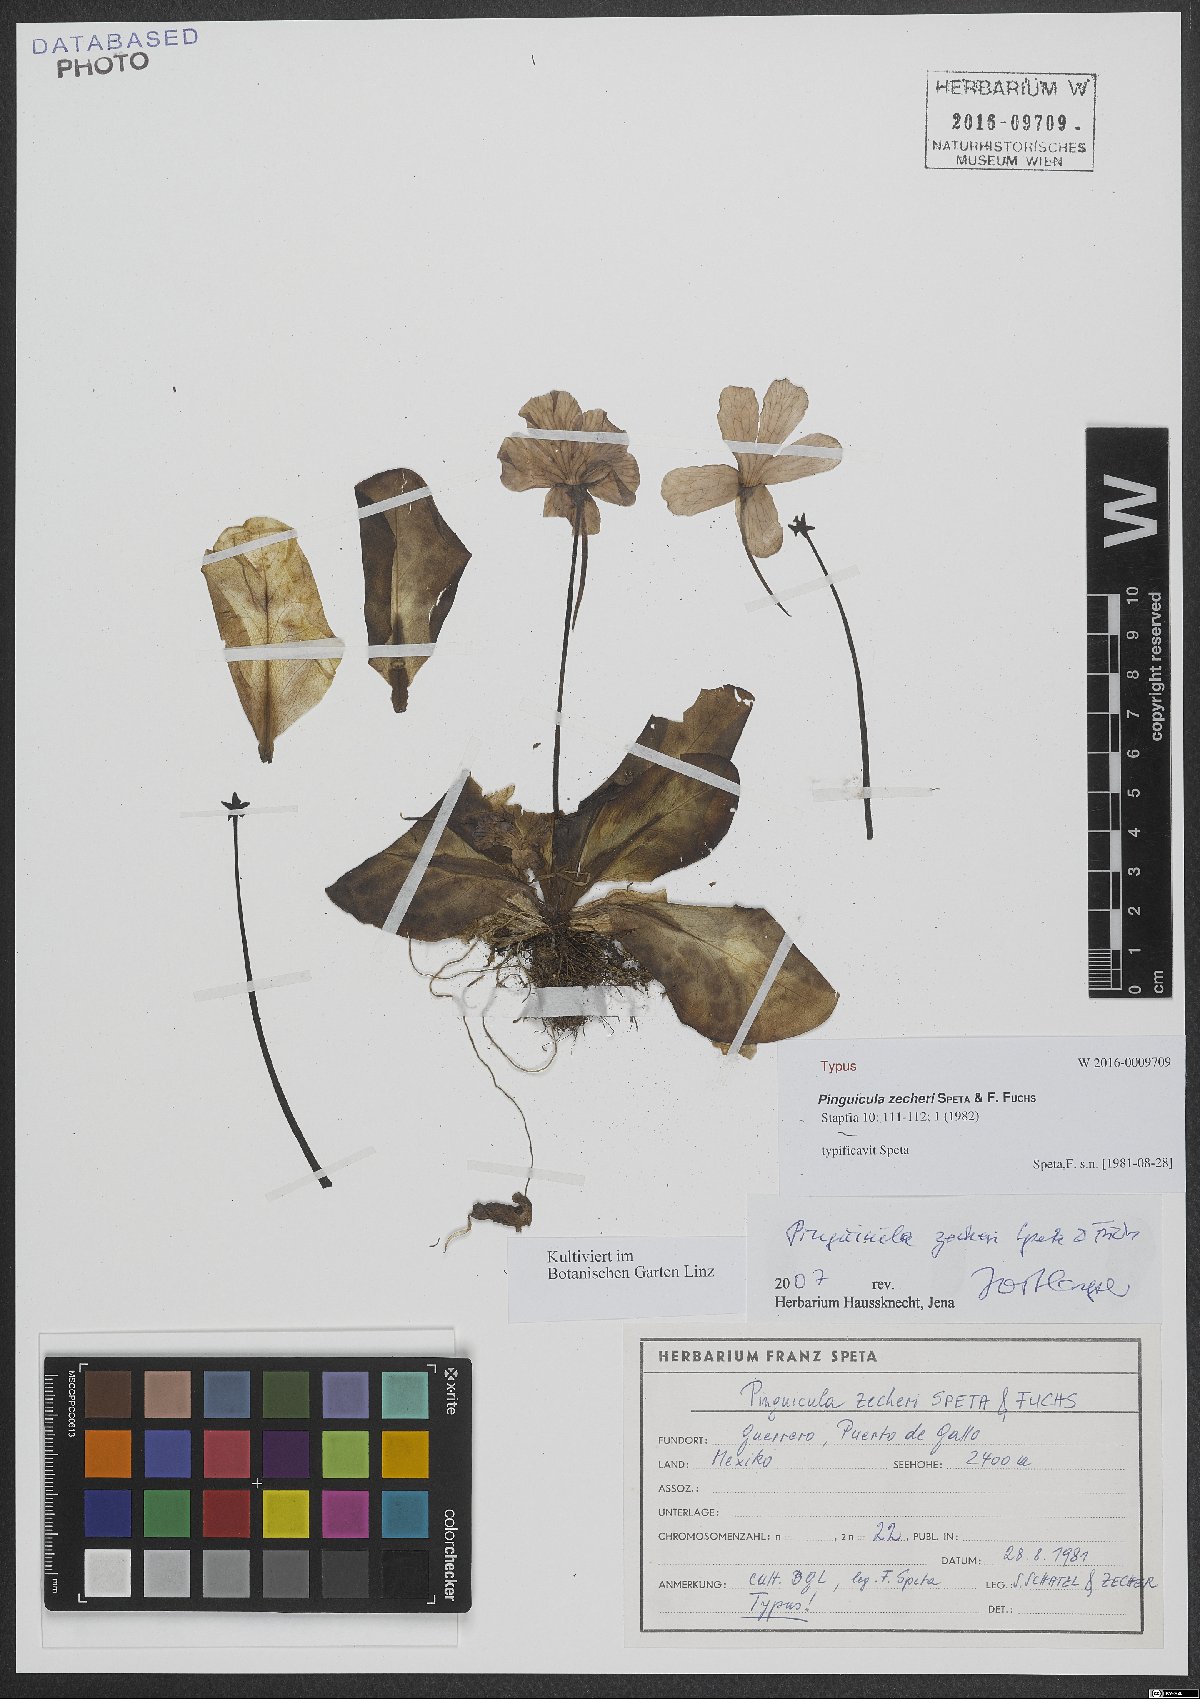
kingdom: Plantae
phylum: Tracheophyta
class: Magnoliopsida
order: Lamiales
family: Lentibulariaceae
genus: Pinguicula
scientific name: Pinguicula zecheri
